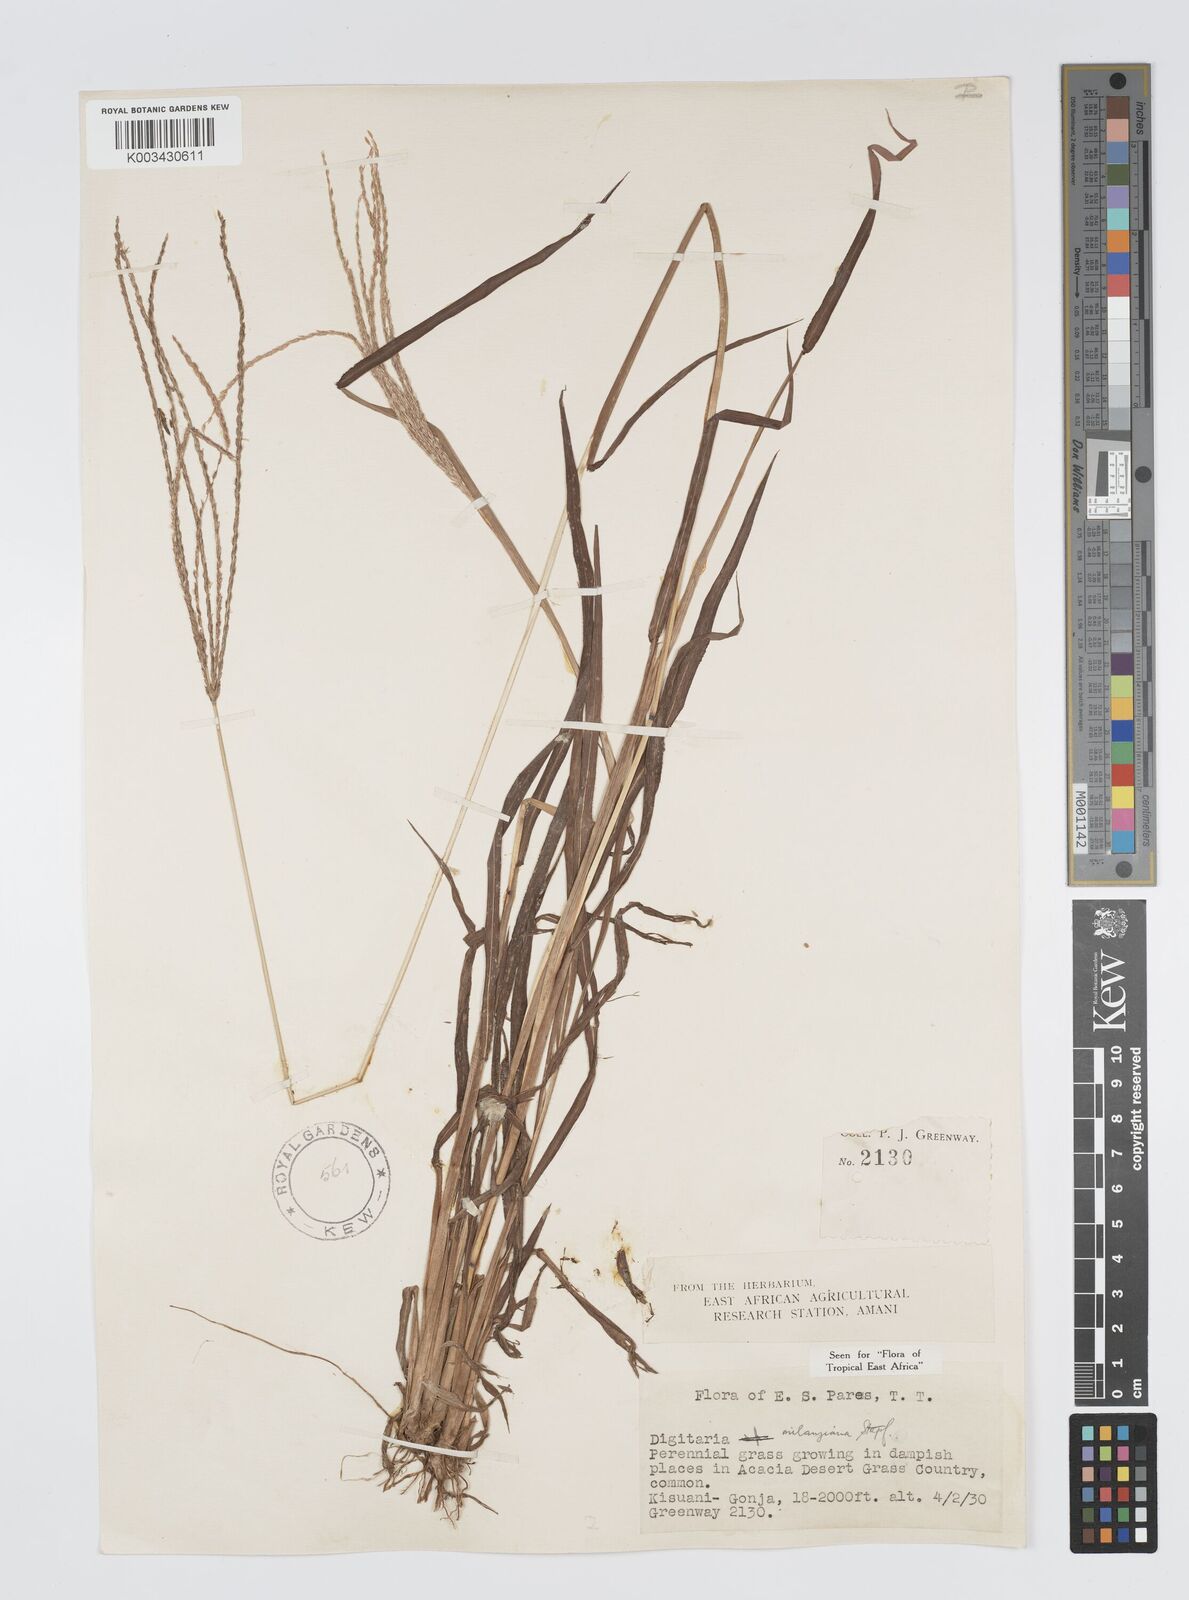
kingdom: Plantae
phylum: Tracheophyta
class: Liliopsida
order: Poales
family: Poaceae
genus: Digitaria
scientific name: Digitaria milanjiana
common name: Madagascar crabgrass
